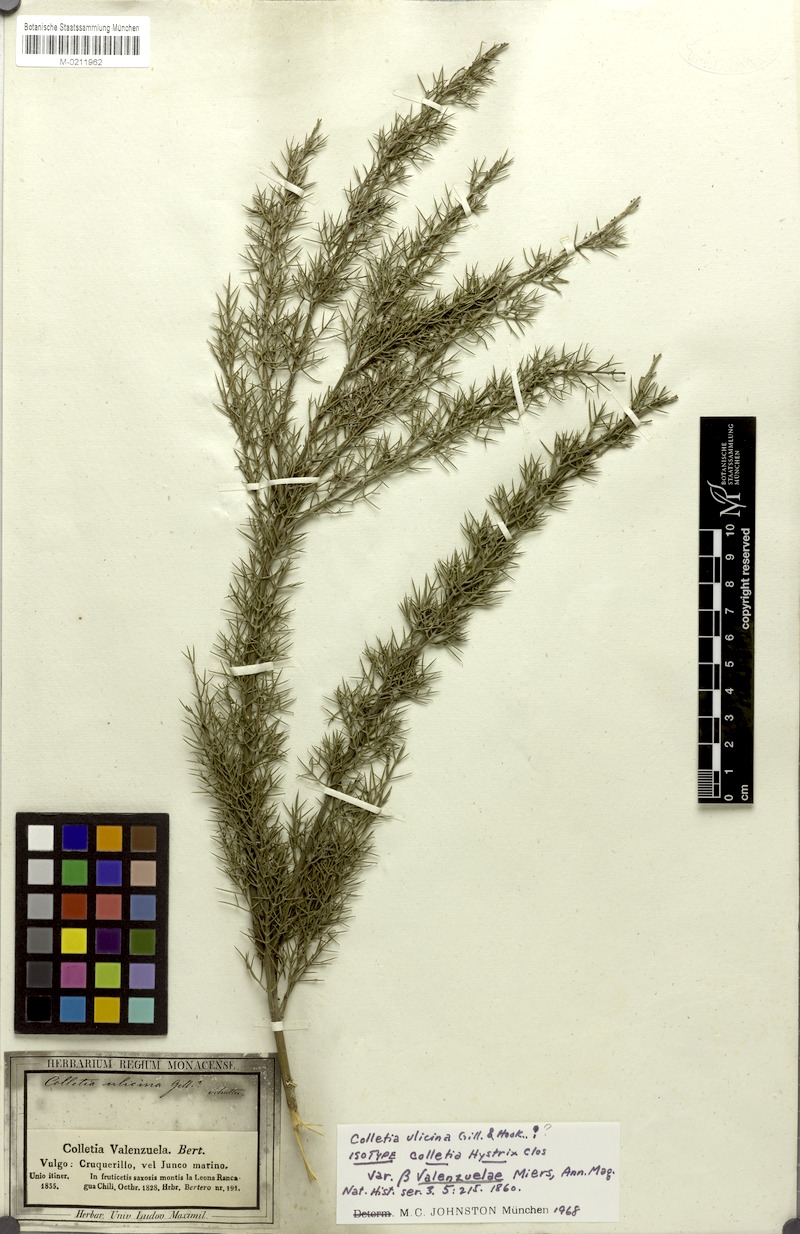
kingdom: Plantae
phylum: Tracheophyta
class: Magnoliopsida
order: Rosales
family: Rhamnaceae
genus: Colletia
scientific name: Colletia ulicina
